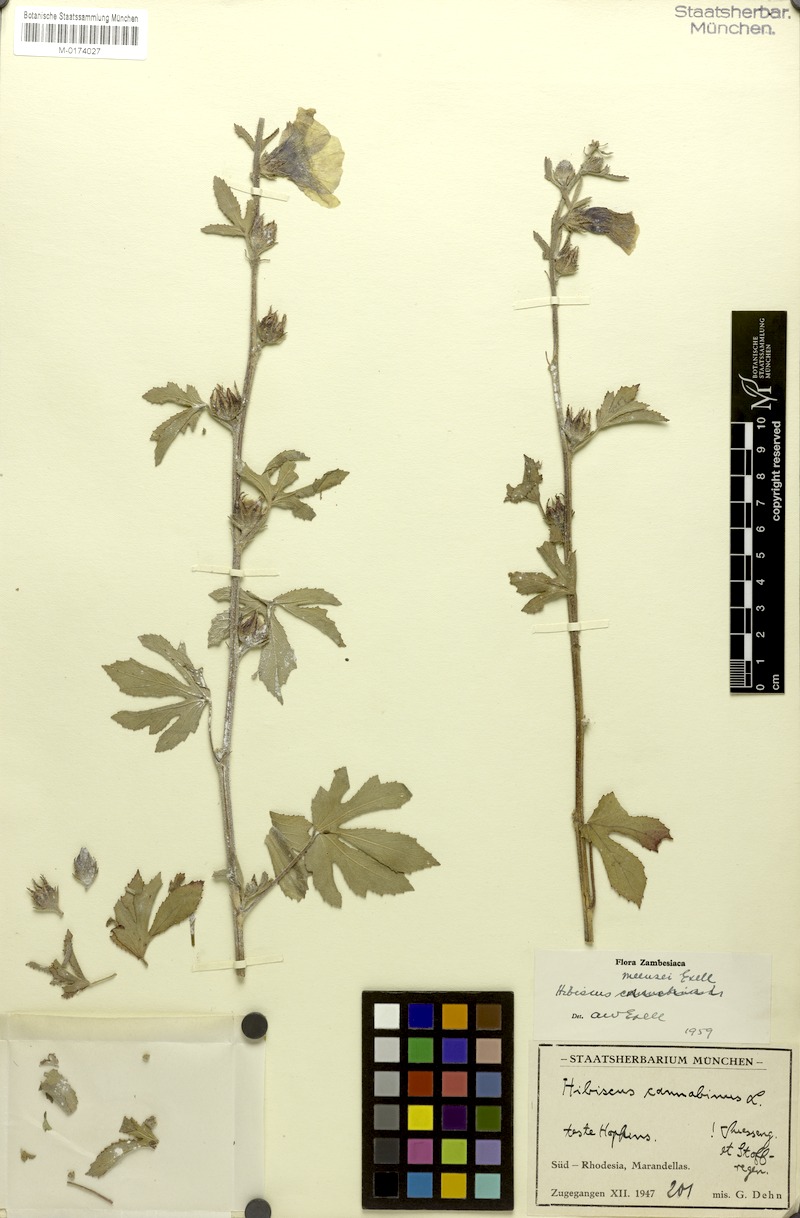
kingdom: Plantae
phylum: Tracheophyta
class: Magnoliopsida
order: Malvales
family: Malvaceae
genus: Hibiscus
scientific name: Hibiscus nigricaulis
